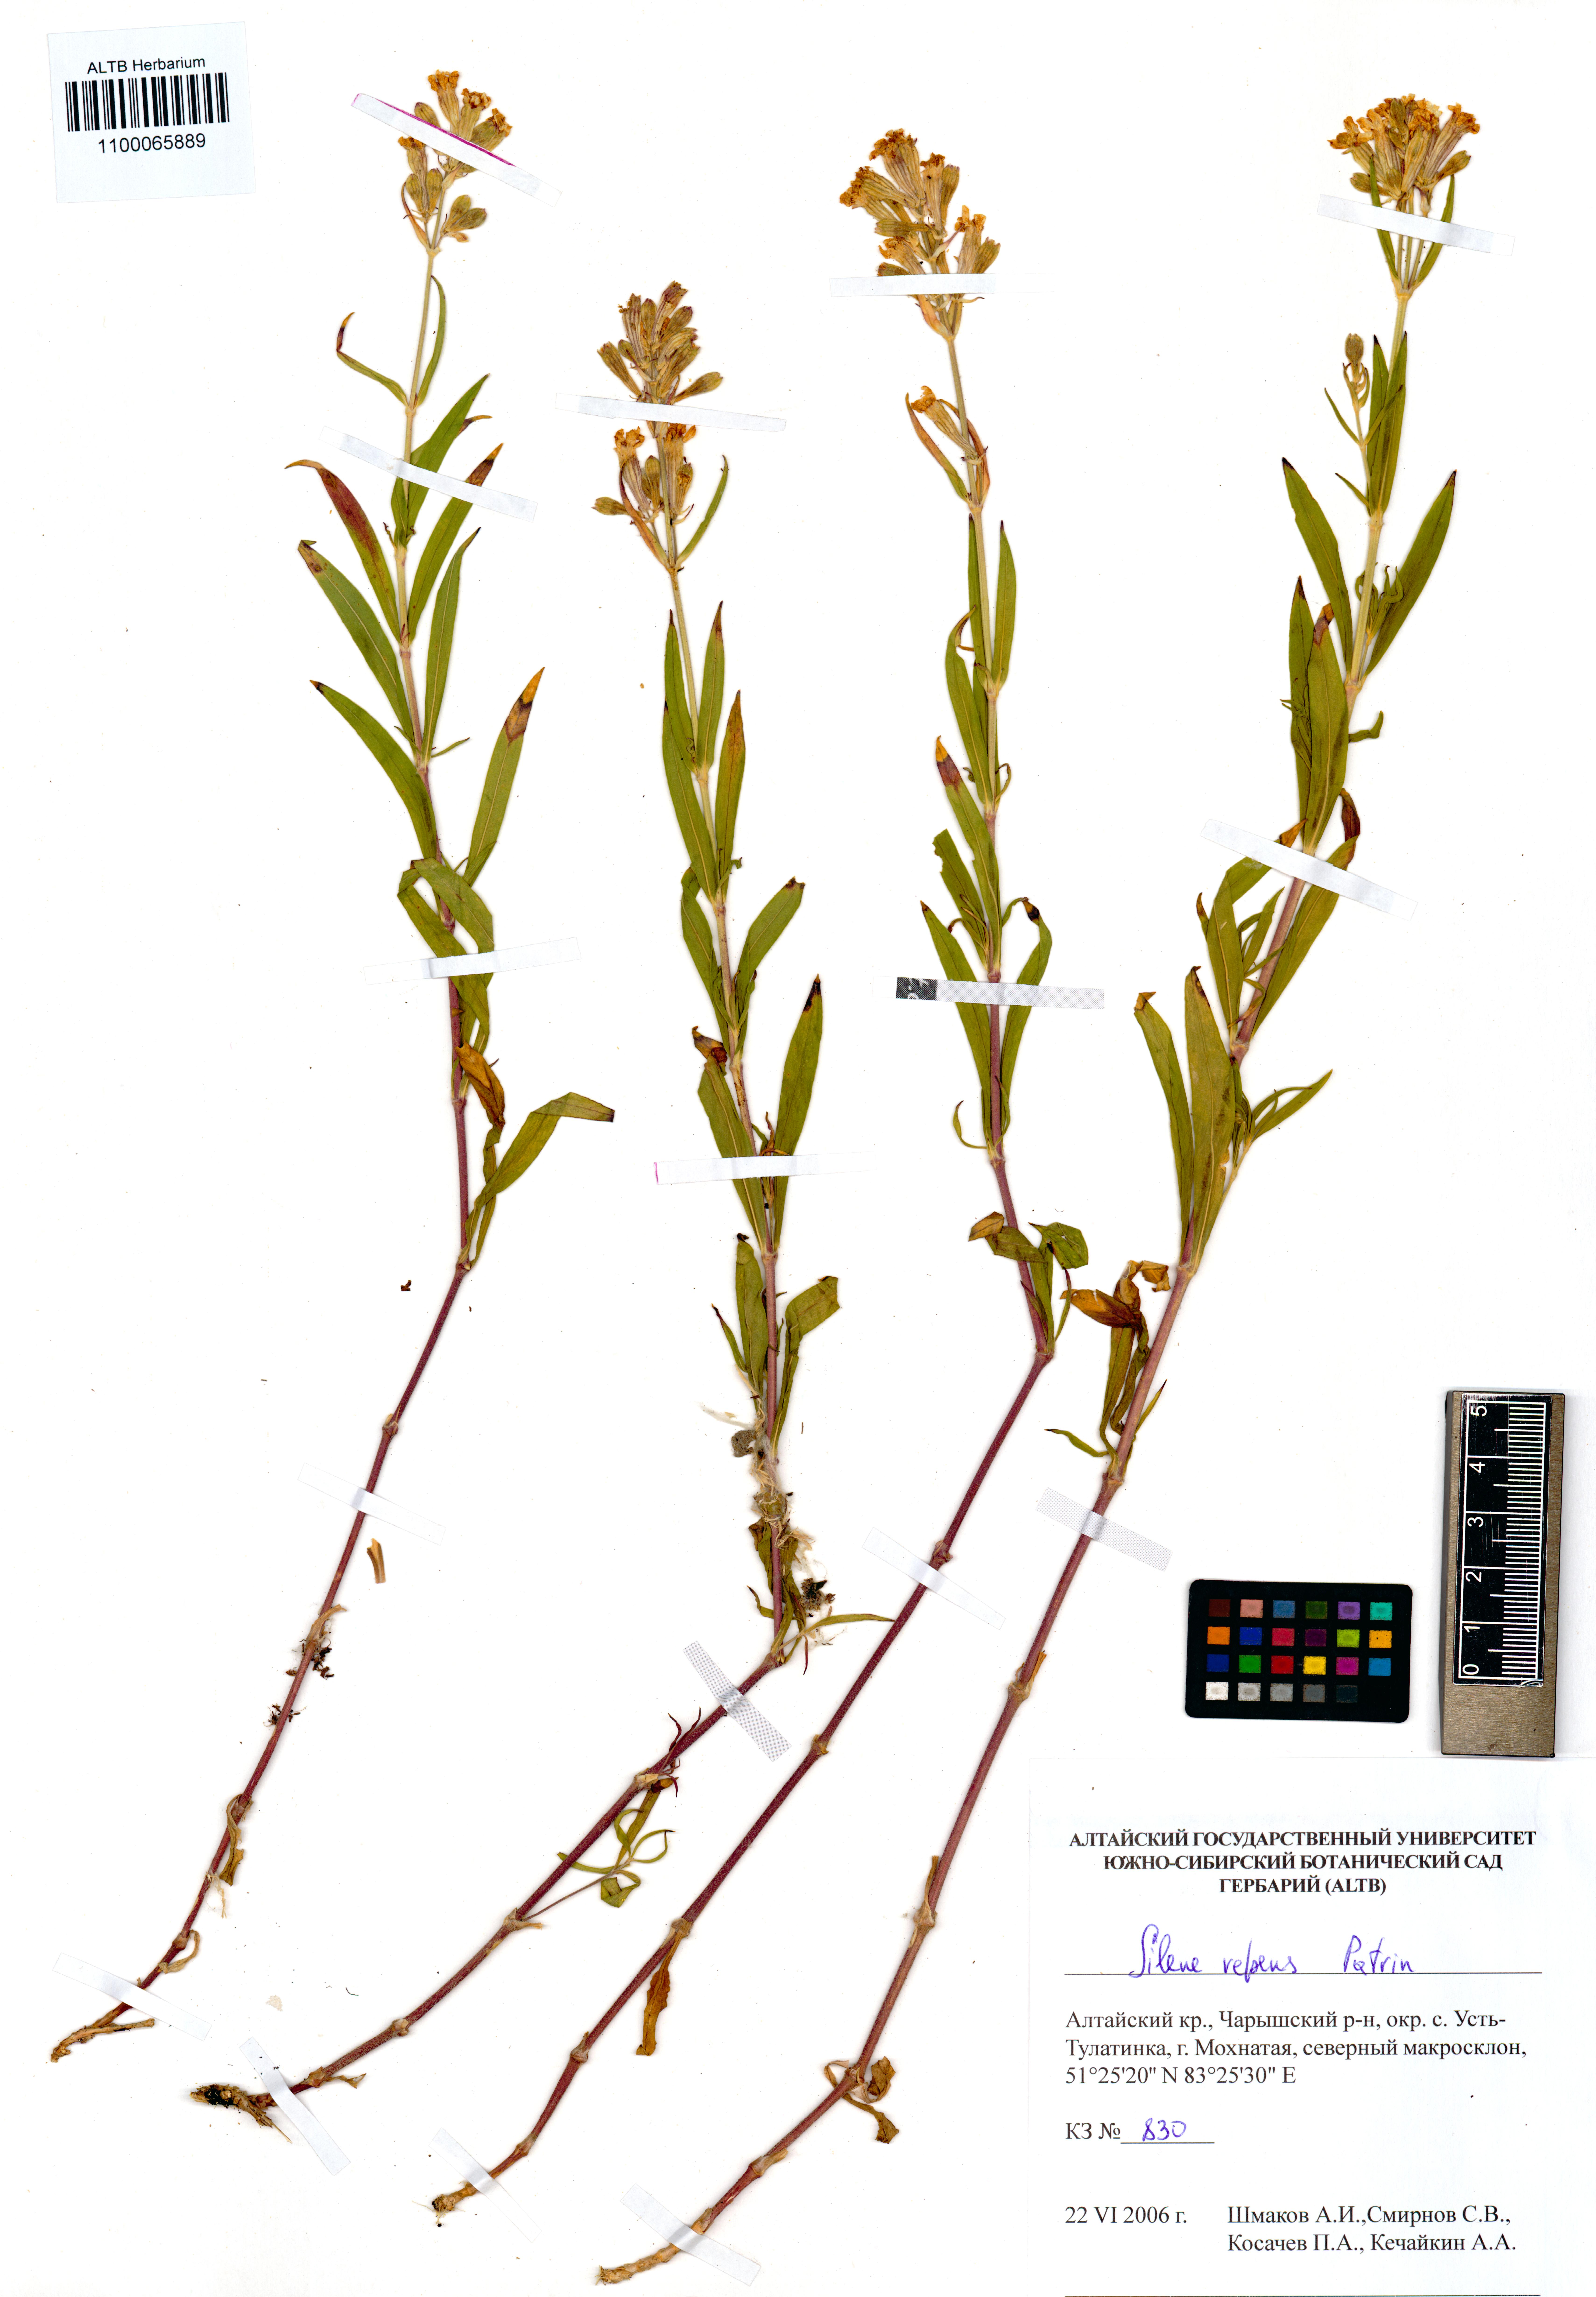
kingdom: Plantae
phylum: Tracheophyta
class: Magnoliopsida
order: Caryophyllales
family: Caryophyllaceae
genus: Silene
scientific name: Silene repens
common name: Pink campion
